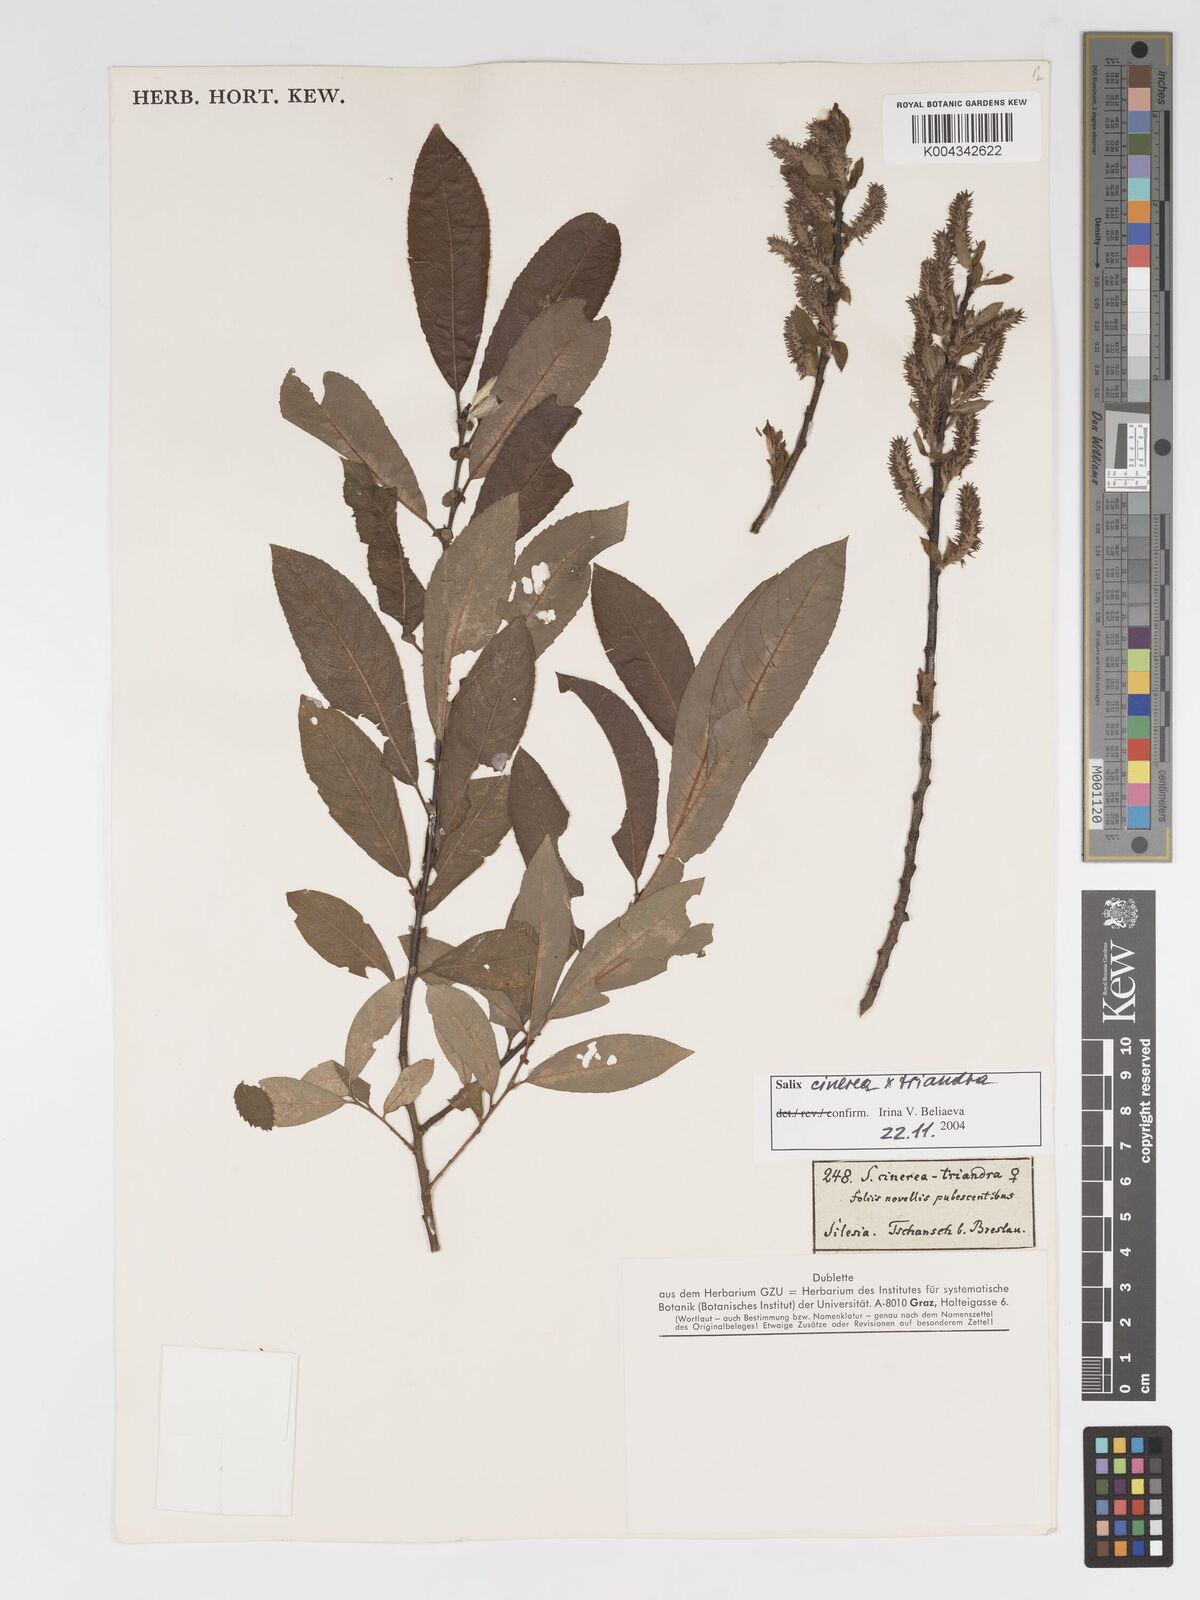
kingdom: Plantae
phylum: Tracheophyta
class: Magnoliopsida
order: Malpighiales
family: Salicaceae
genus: Salix
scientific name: Salix cinerea
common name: Common sallow
